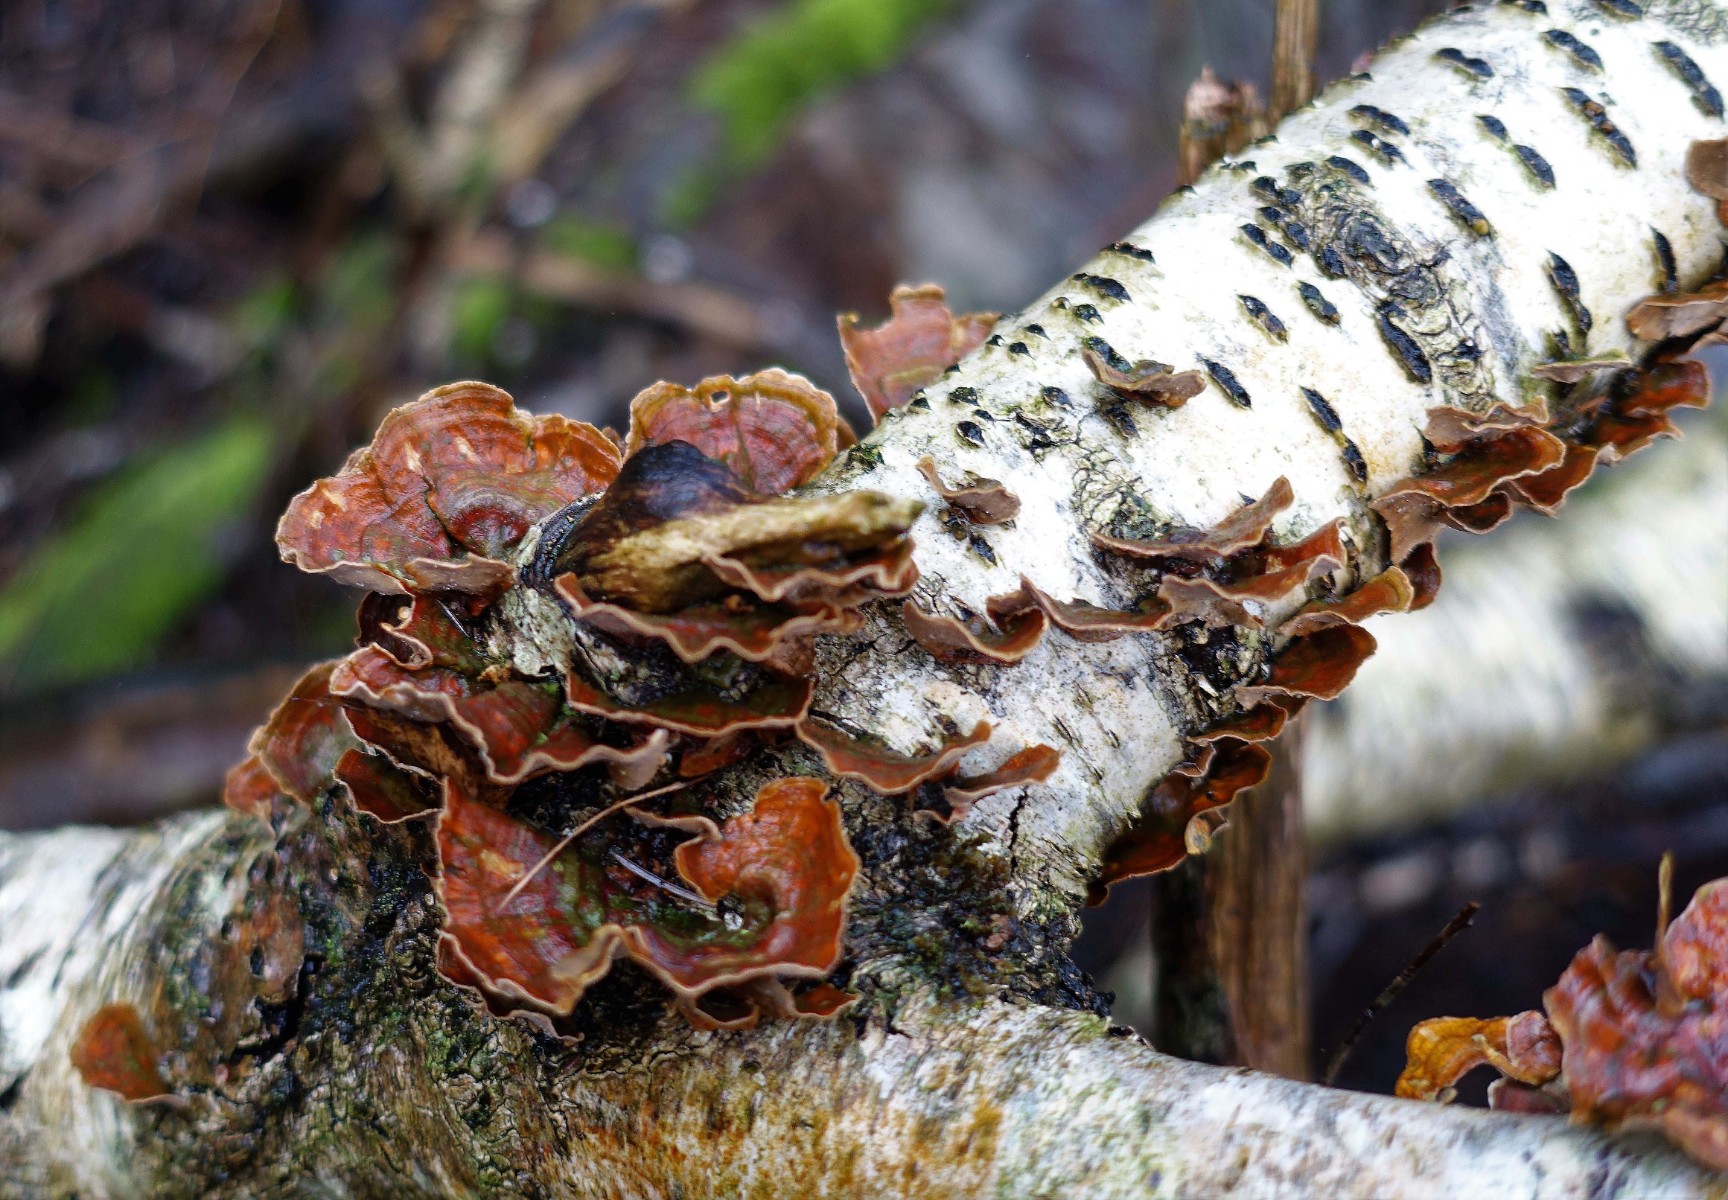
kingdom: Fungi
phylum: Basidiomycota
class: Agaricomycetes
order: Russulales
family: Stereaceae
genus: Stereum
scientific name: Stereum subtomentosum
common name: smuk lædersvamp
